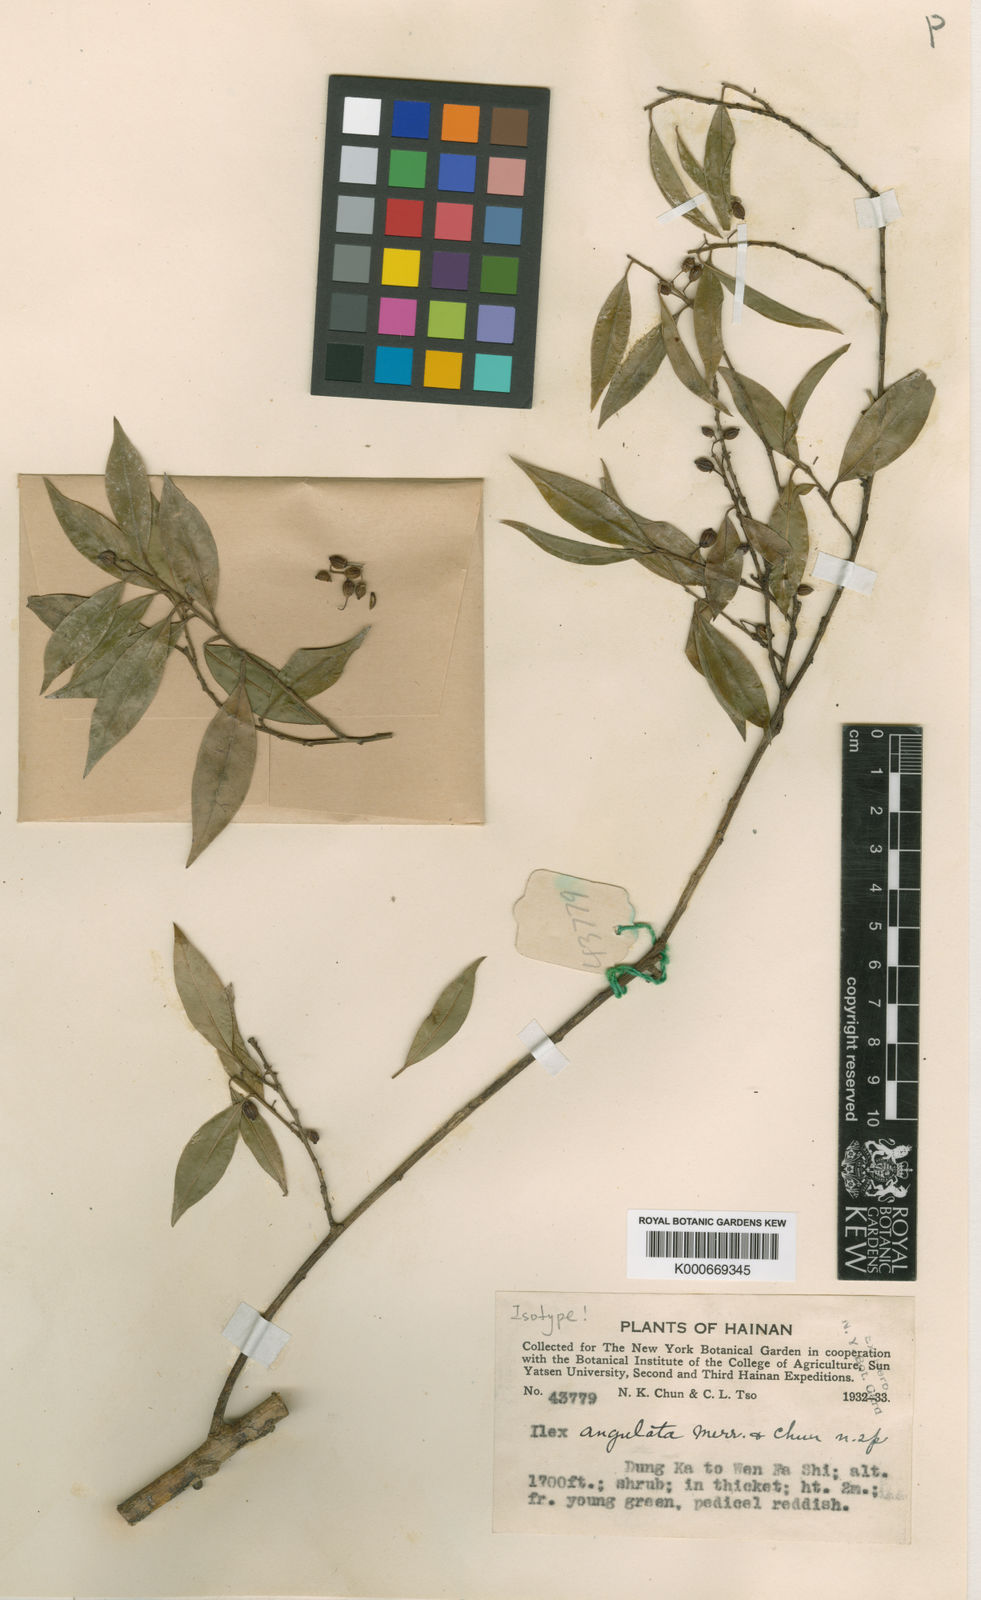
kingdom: Plantae
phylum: Tracheophyta
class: Magnoliopsida
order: Aquifoliales
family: Aquifoliaceae
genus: Ilex
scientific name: Ilex angulata
